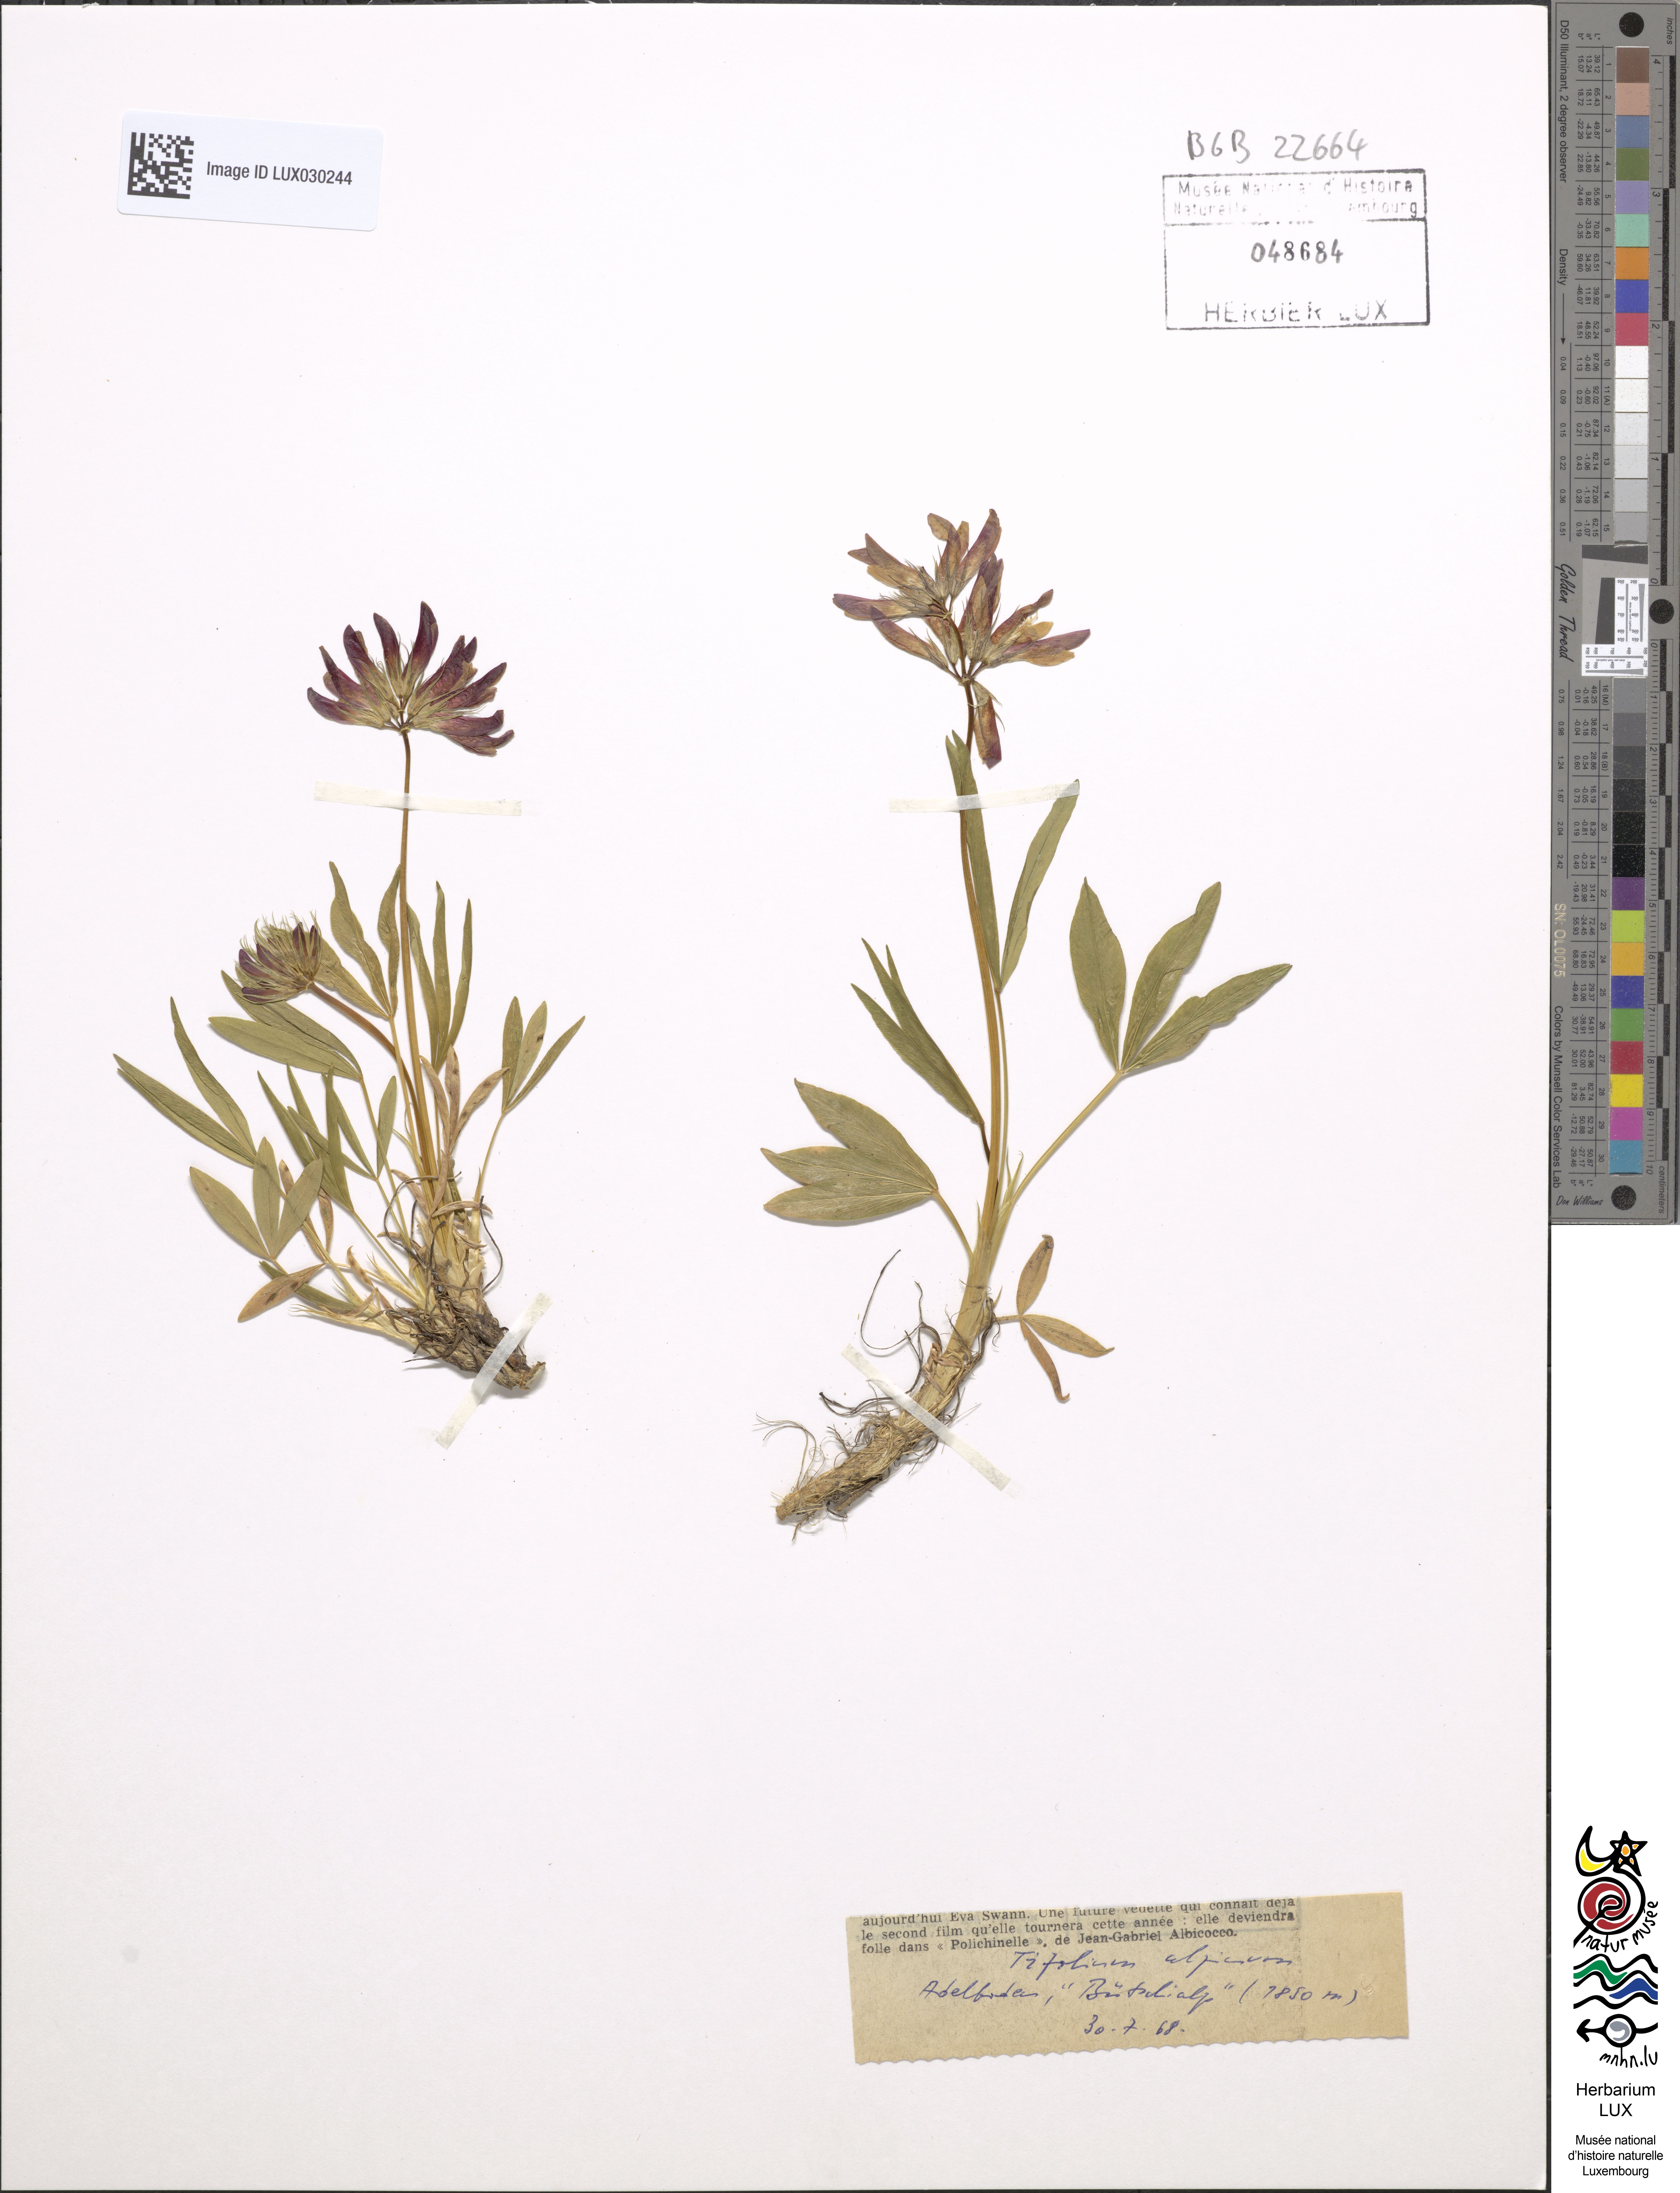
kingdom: Plantae
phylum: Tracheophyta
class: Magnoliopsida
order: Fabales
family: Fabaceae
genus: Trifolium
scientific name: Trifolium alpinum
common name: Alpine clover
